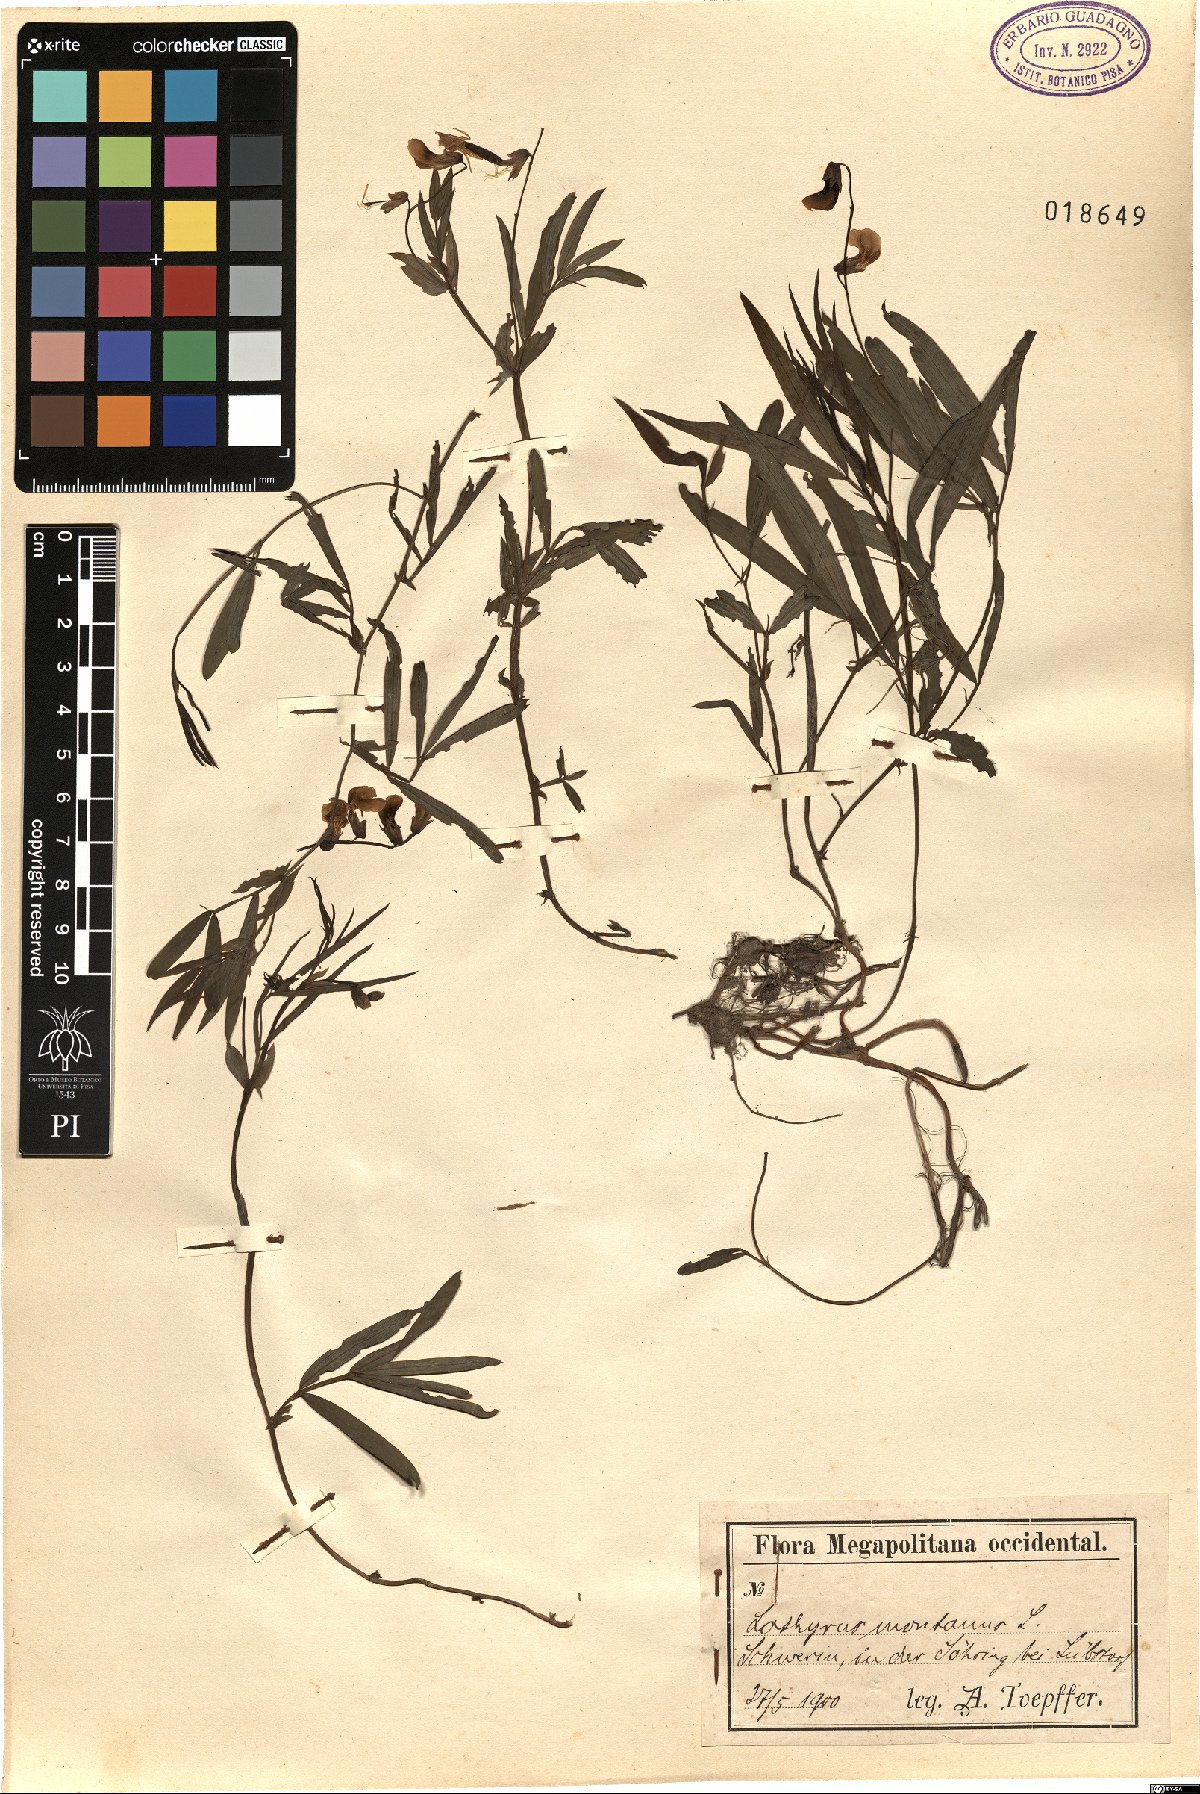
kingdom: Plantae
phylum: Tracheophyta
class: Magnoliopsida
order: Fabales
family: Fabaceae
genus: Lathyrus
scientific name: Lathyrus linifolius
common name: Bitter-vetch
